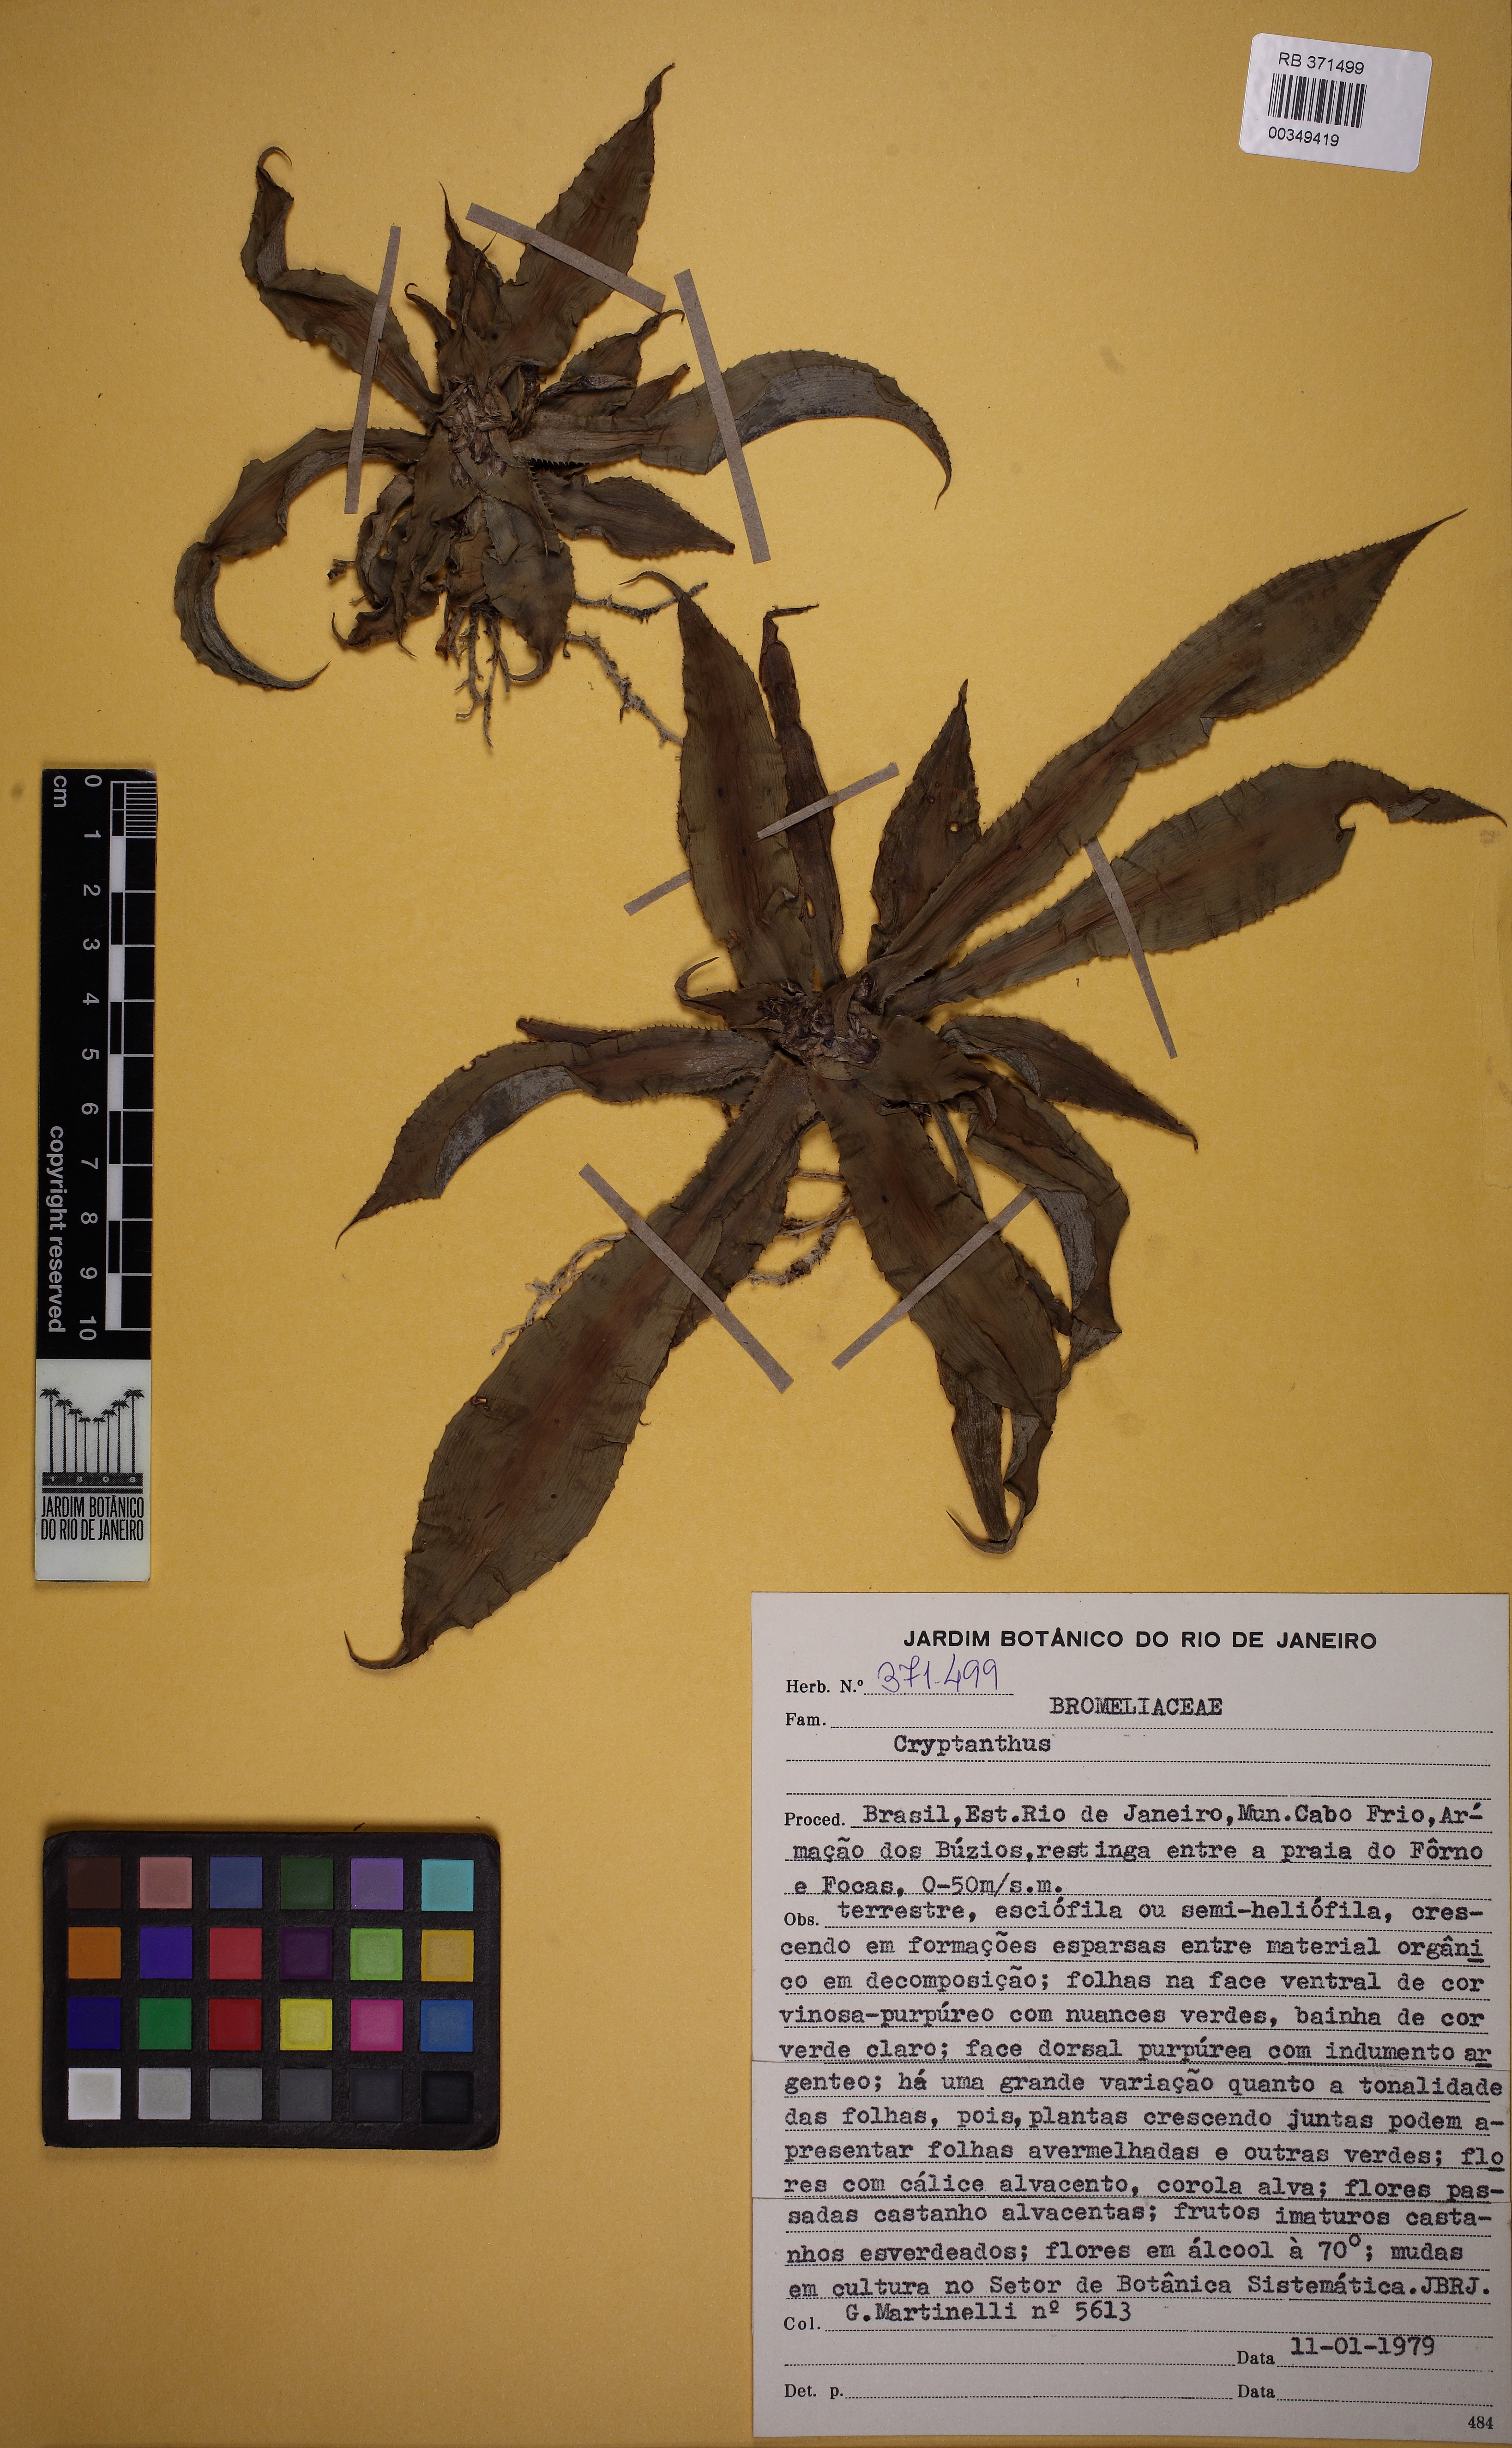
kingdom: Plantae
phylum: Tracheophyta
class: Liliopsida
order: Poales
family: Bromeliaceae
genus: Cryptanthus
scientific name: Cryptanthus
